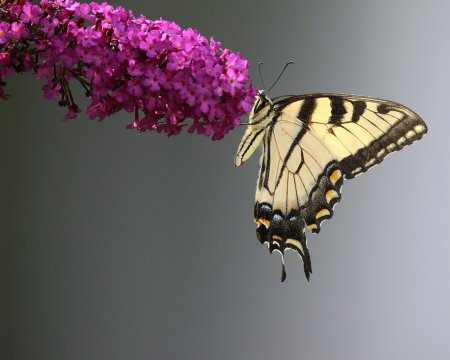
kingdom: Animalia
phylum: Arthropoda
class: Insecta
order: Lepidoptera
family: Papilionidae
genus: Pterourus
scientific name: Pterourus glaucus
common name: Eastern Tiger Swallowtail
